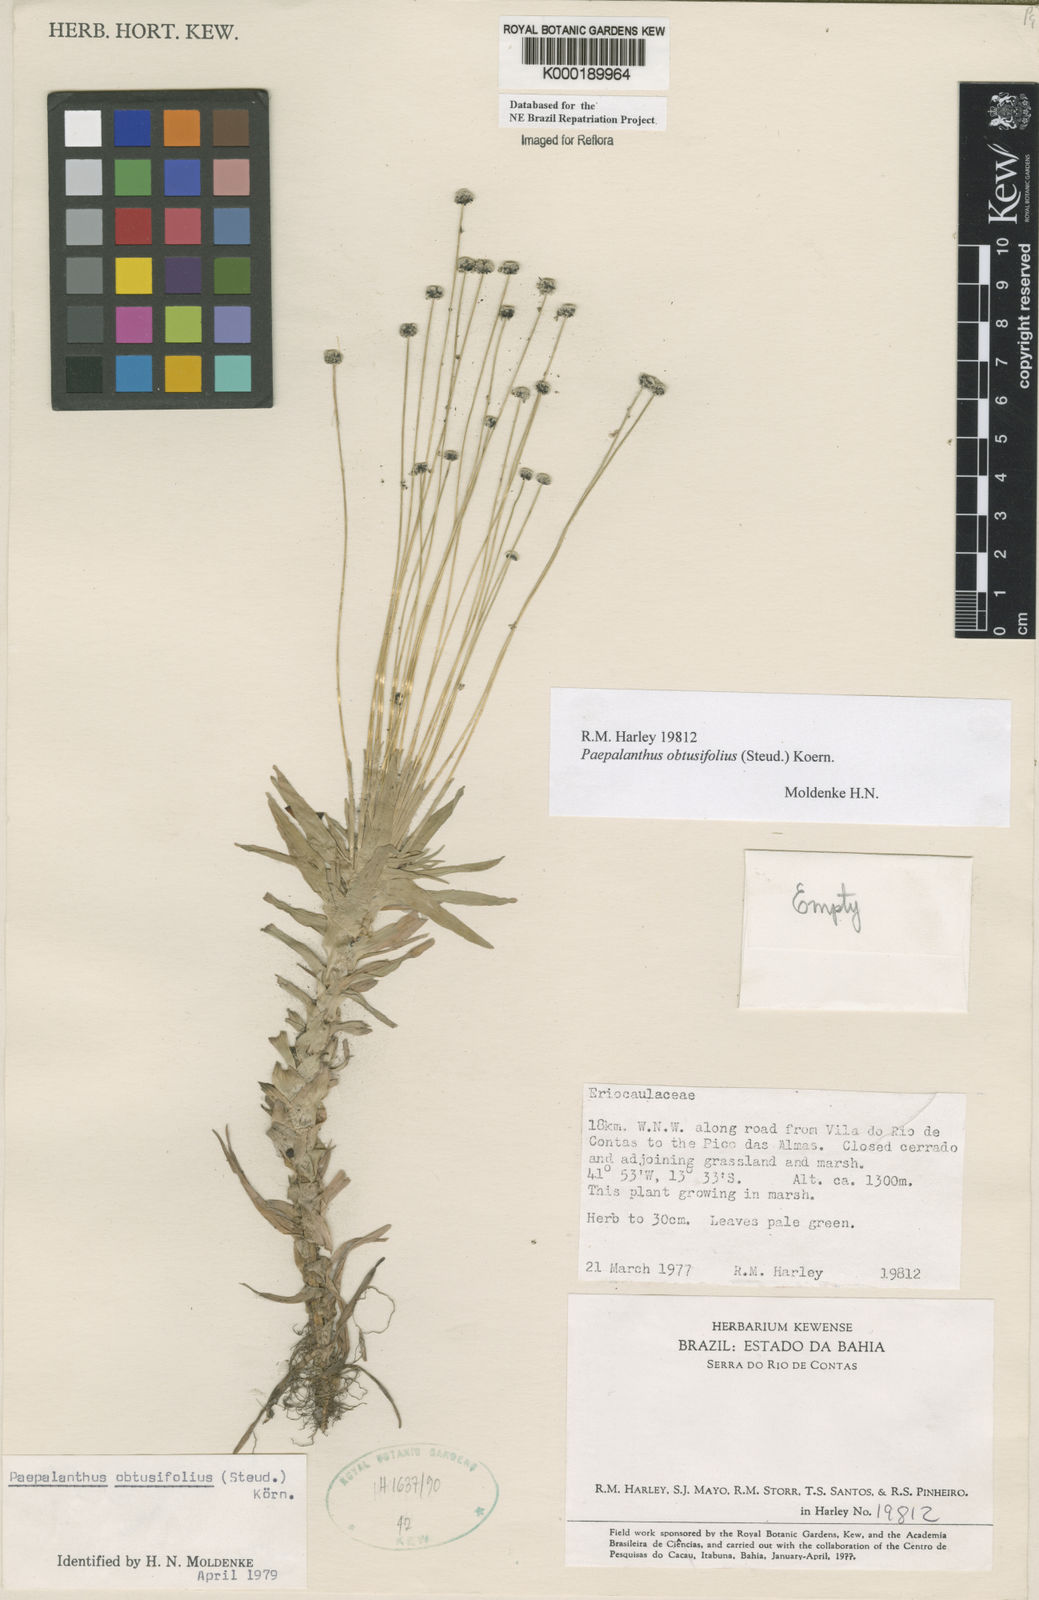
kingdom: Plantae
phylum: Tracheophyta
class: Liliopsida
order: Poales
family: Eriocaulaceae
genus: Paepalanthus
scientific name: Paepalanthus
